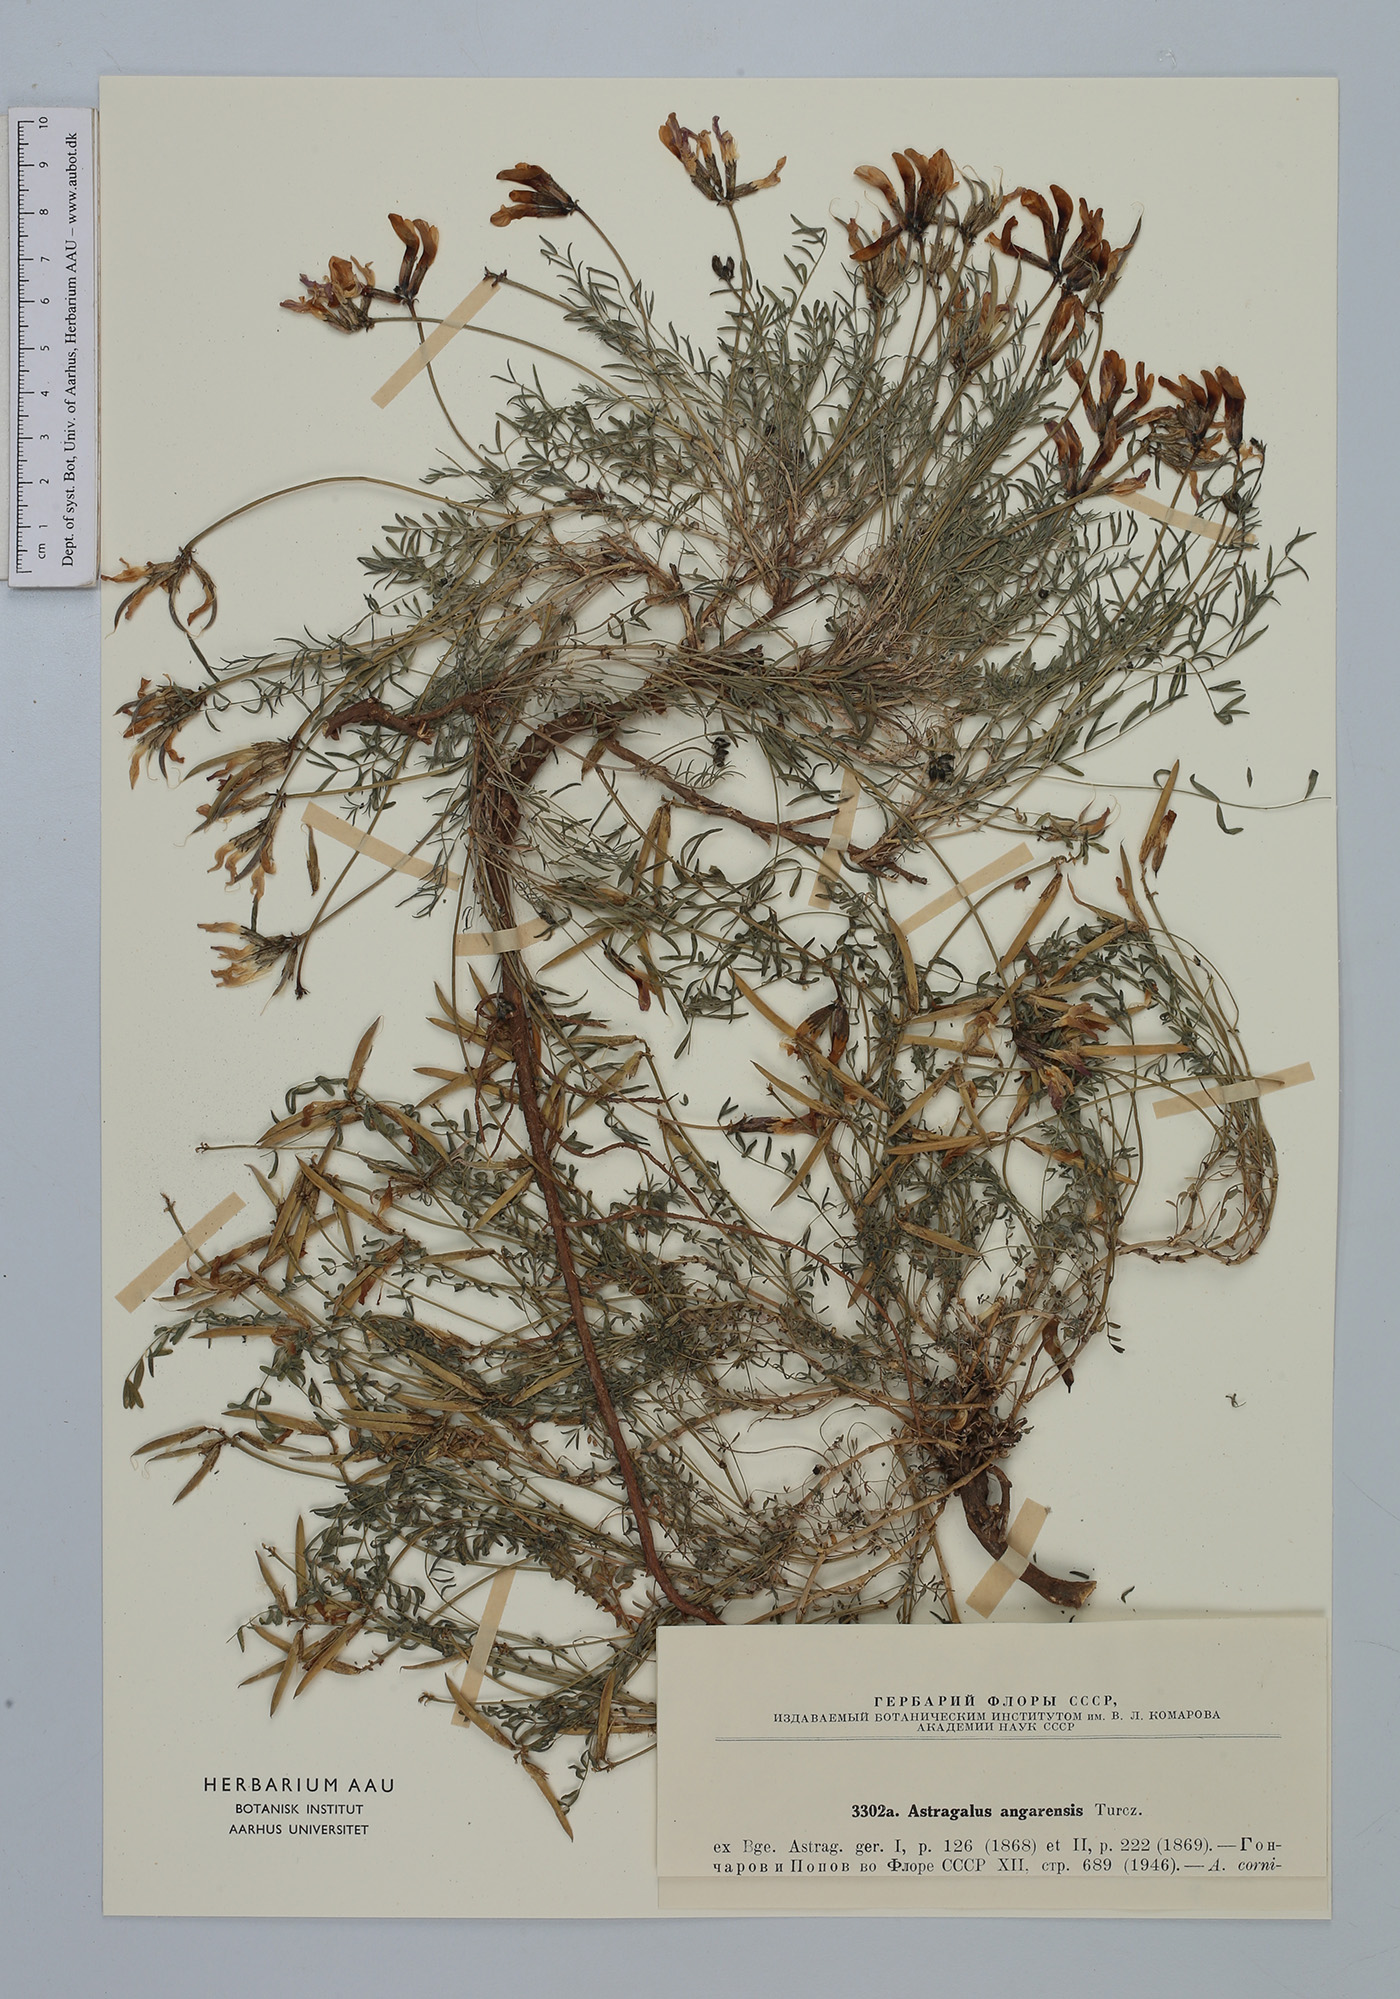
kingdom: Plantae
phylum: Tracheophyta
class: Magnoliopsida
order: Fabales
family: Fabaceae
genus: Astragalus
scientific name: Astragalus angarensis
